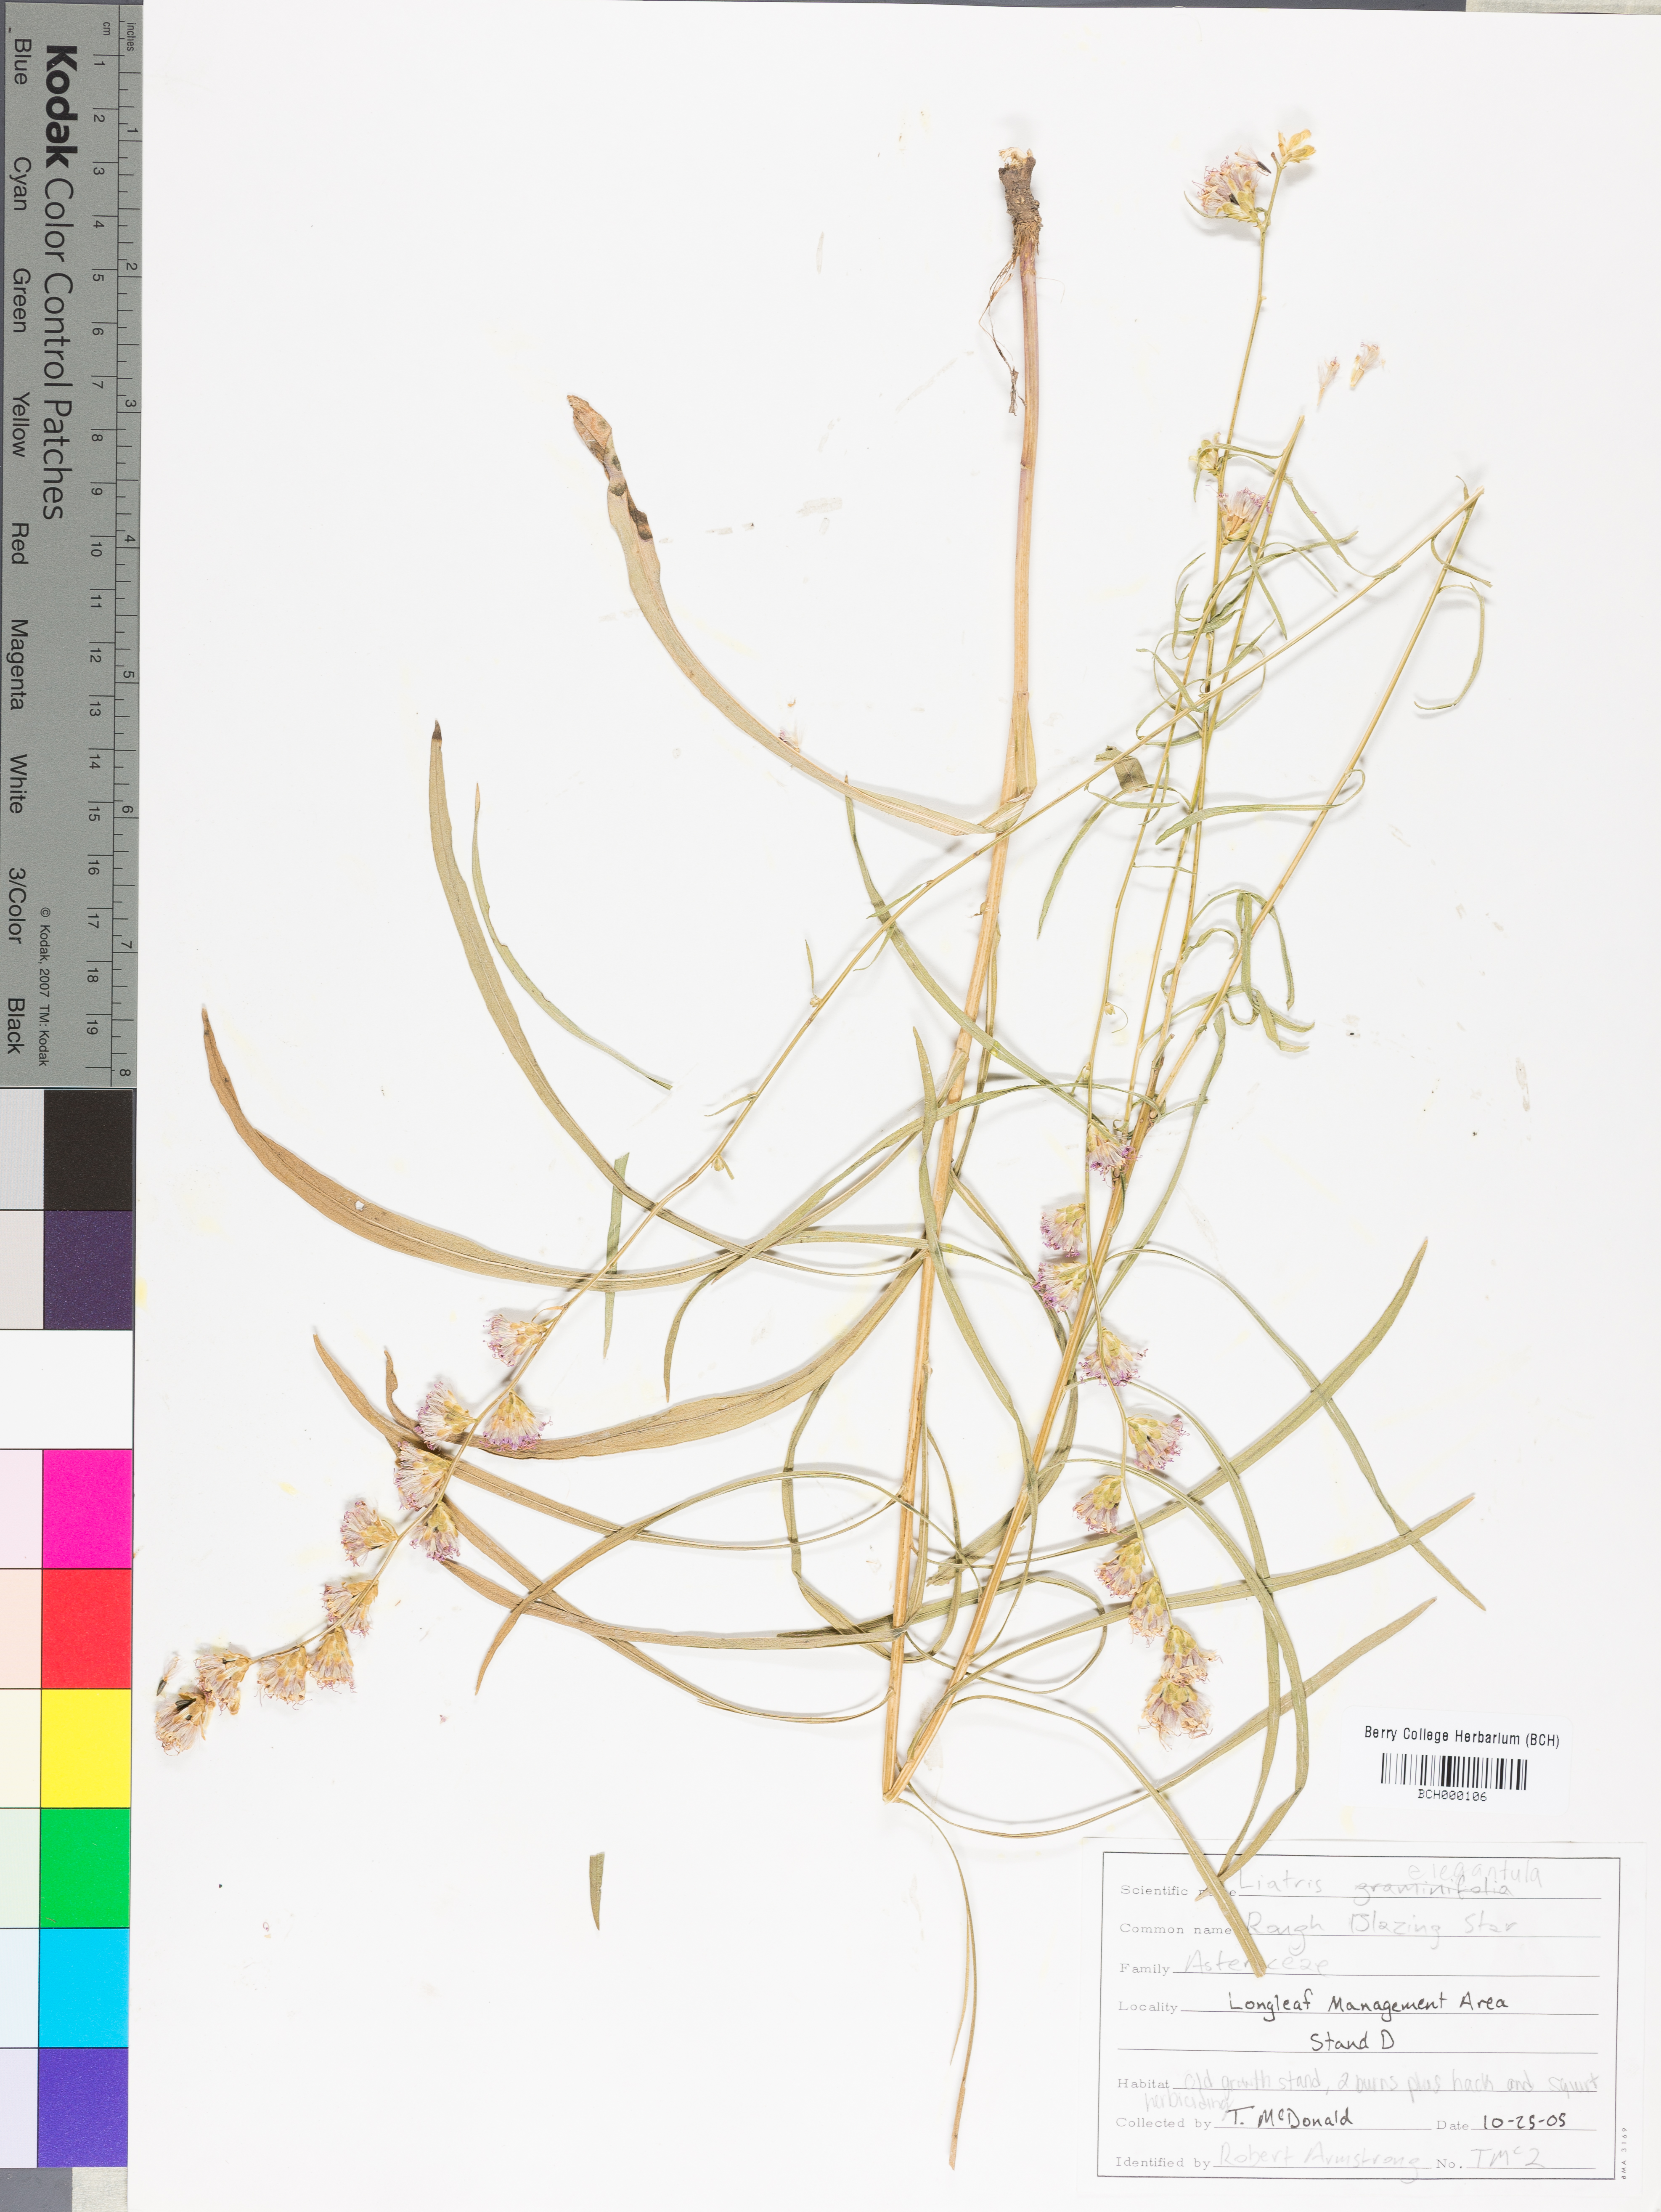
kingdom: Plantae
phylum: Tracheophyta
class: Magnoliopsida
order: Asterales
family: Asteraceae
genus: Liatris
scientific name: Liatris elegantula
